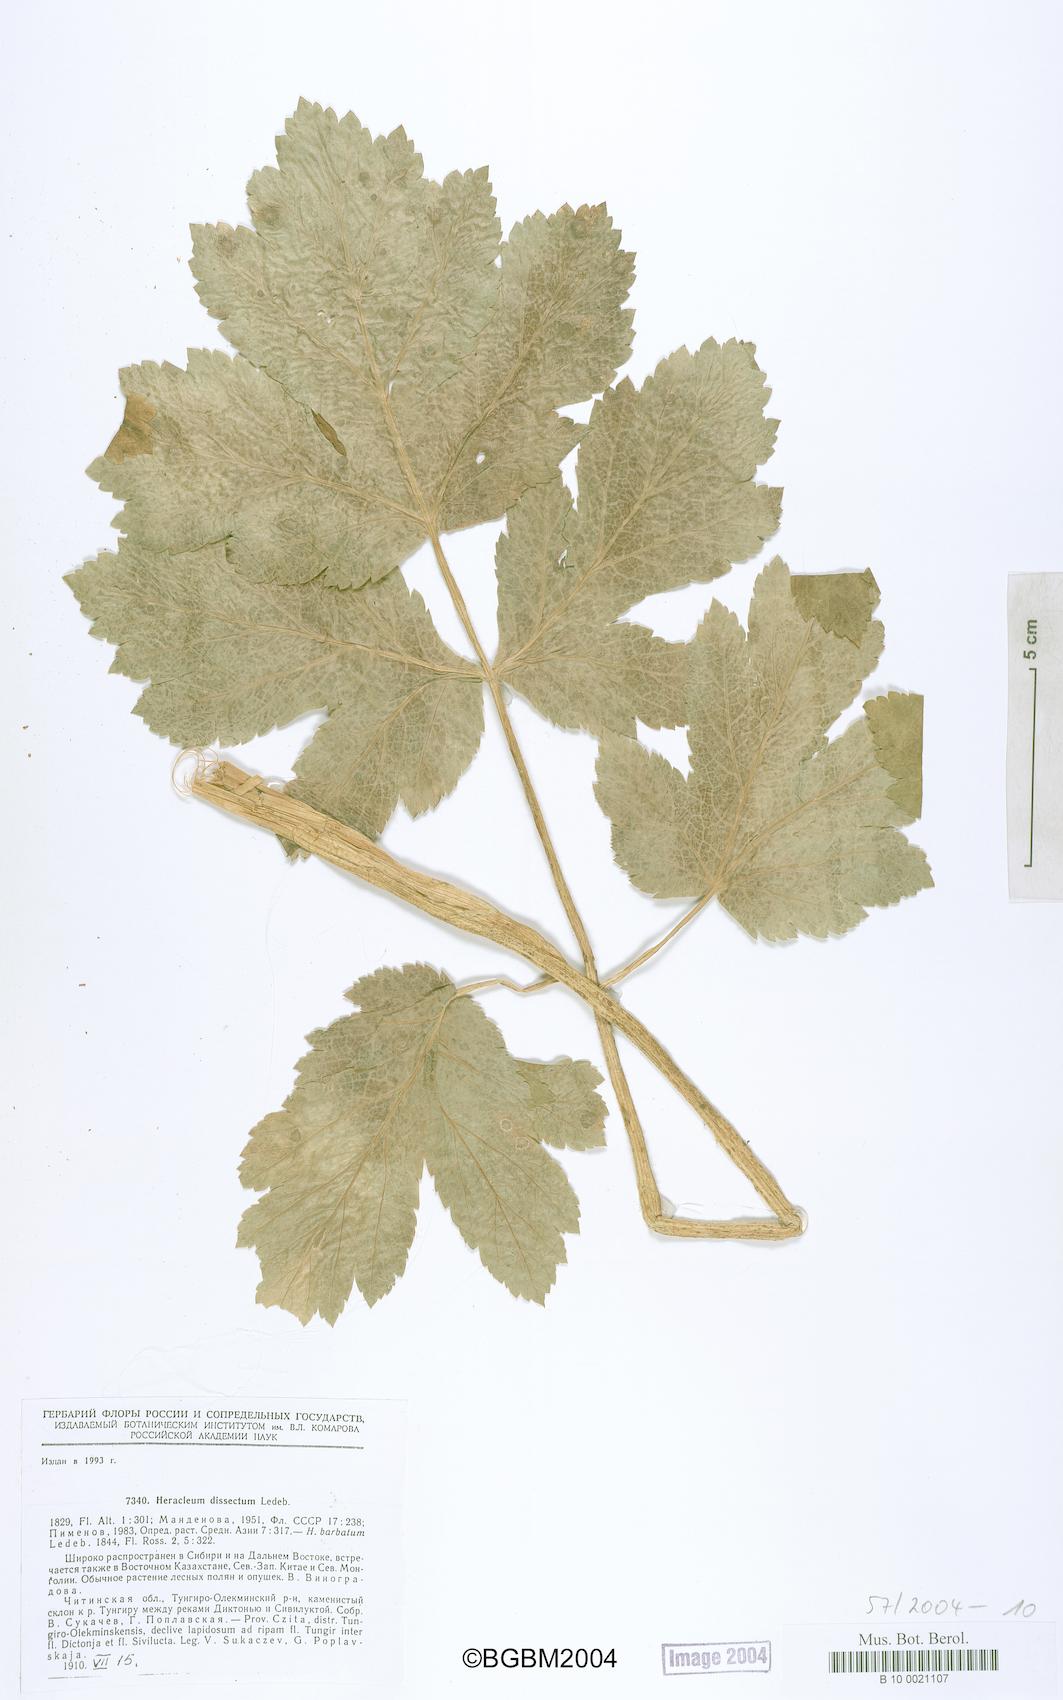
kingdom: Plantae
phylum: Tracheophyta
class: Magnoliopsida
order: Apiales
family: Apiaceae
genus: Heracleum
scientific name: Heracleum dissectum
